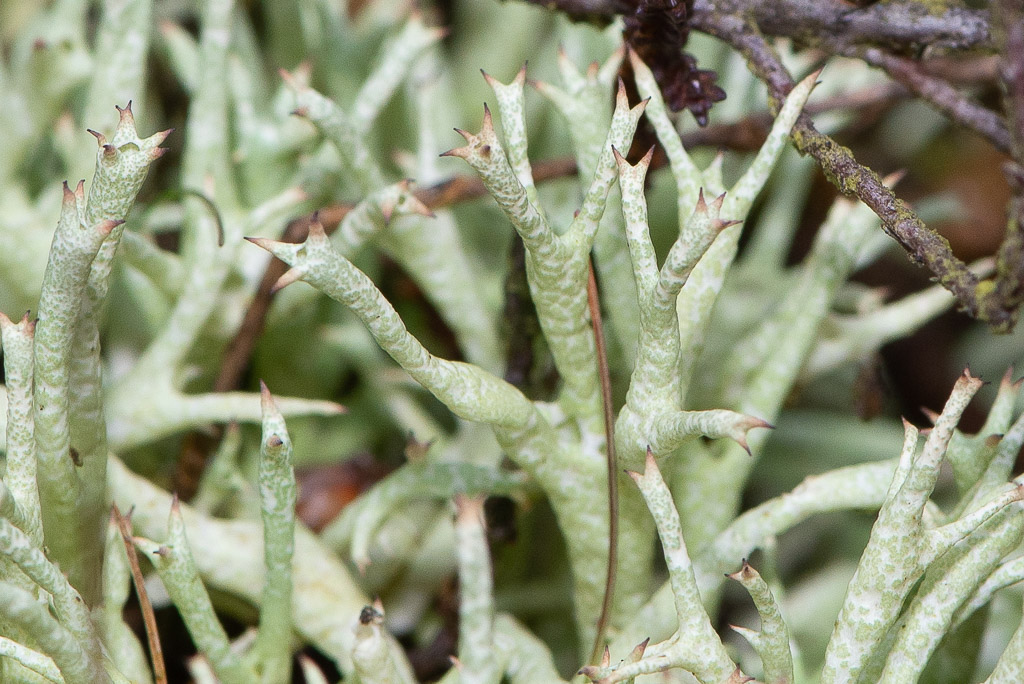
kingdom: Fungi
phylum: Ascomycota
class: Lecanoromycetes
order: Lecanorales
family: Cladoniaceae
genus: Cladonia
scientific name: Cladonia uncialis
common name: pigget bægerlav
